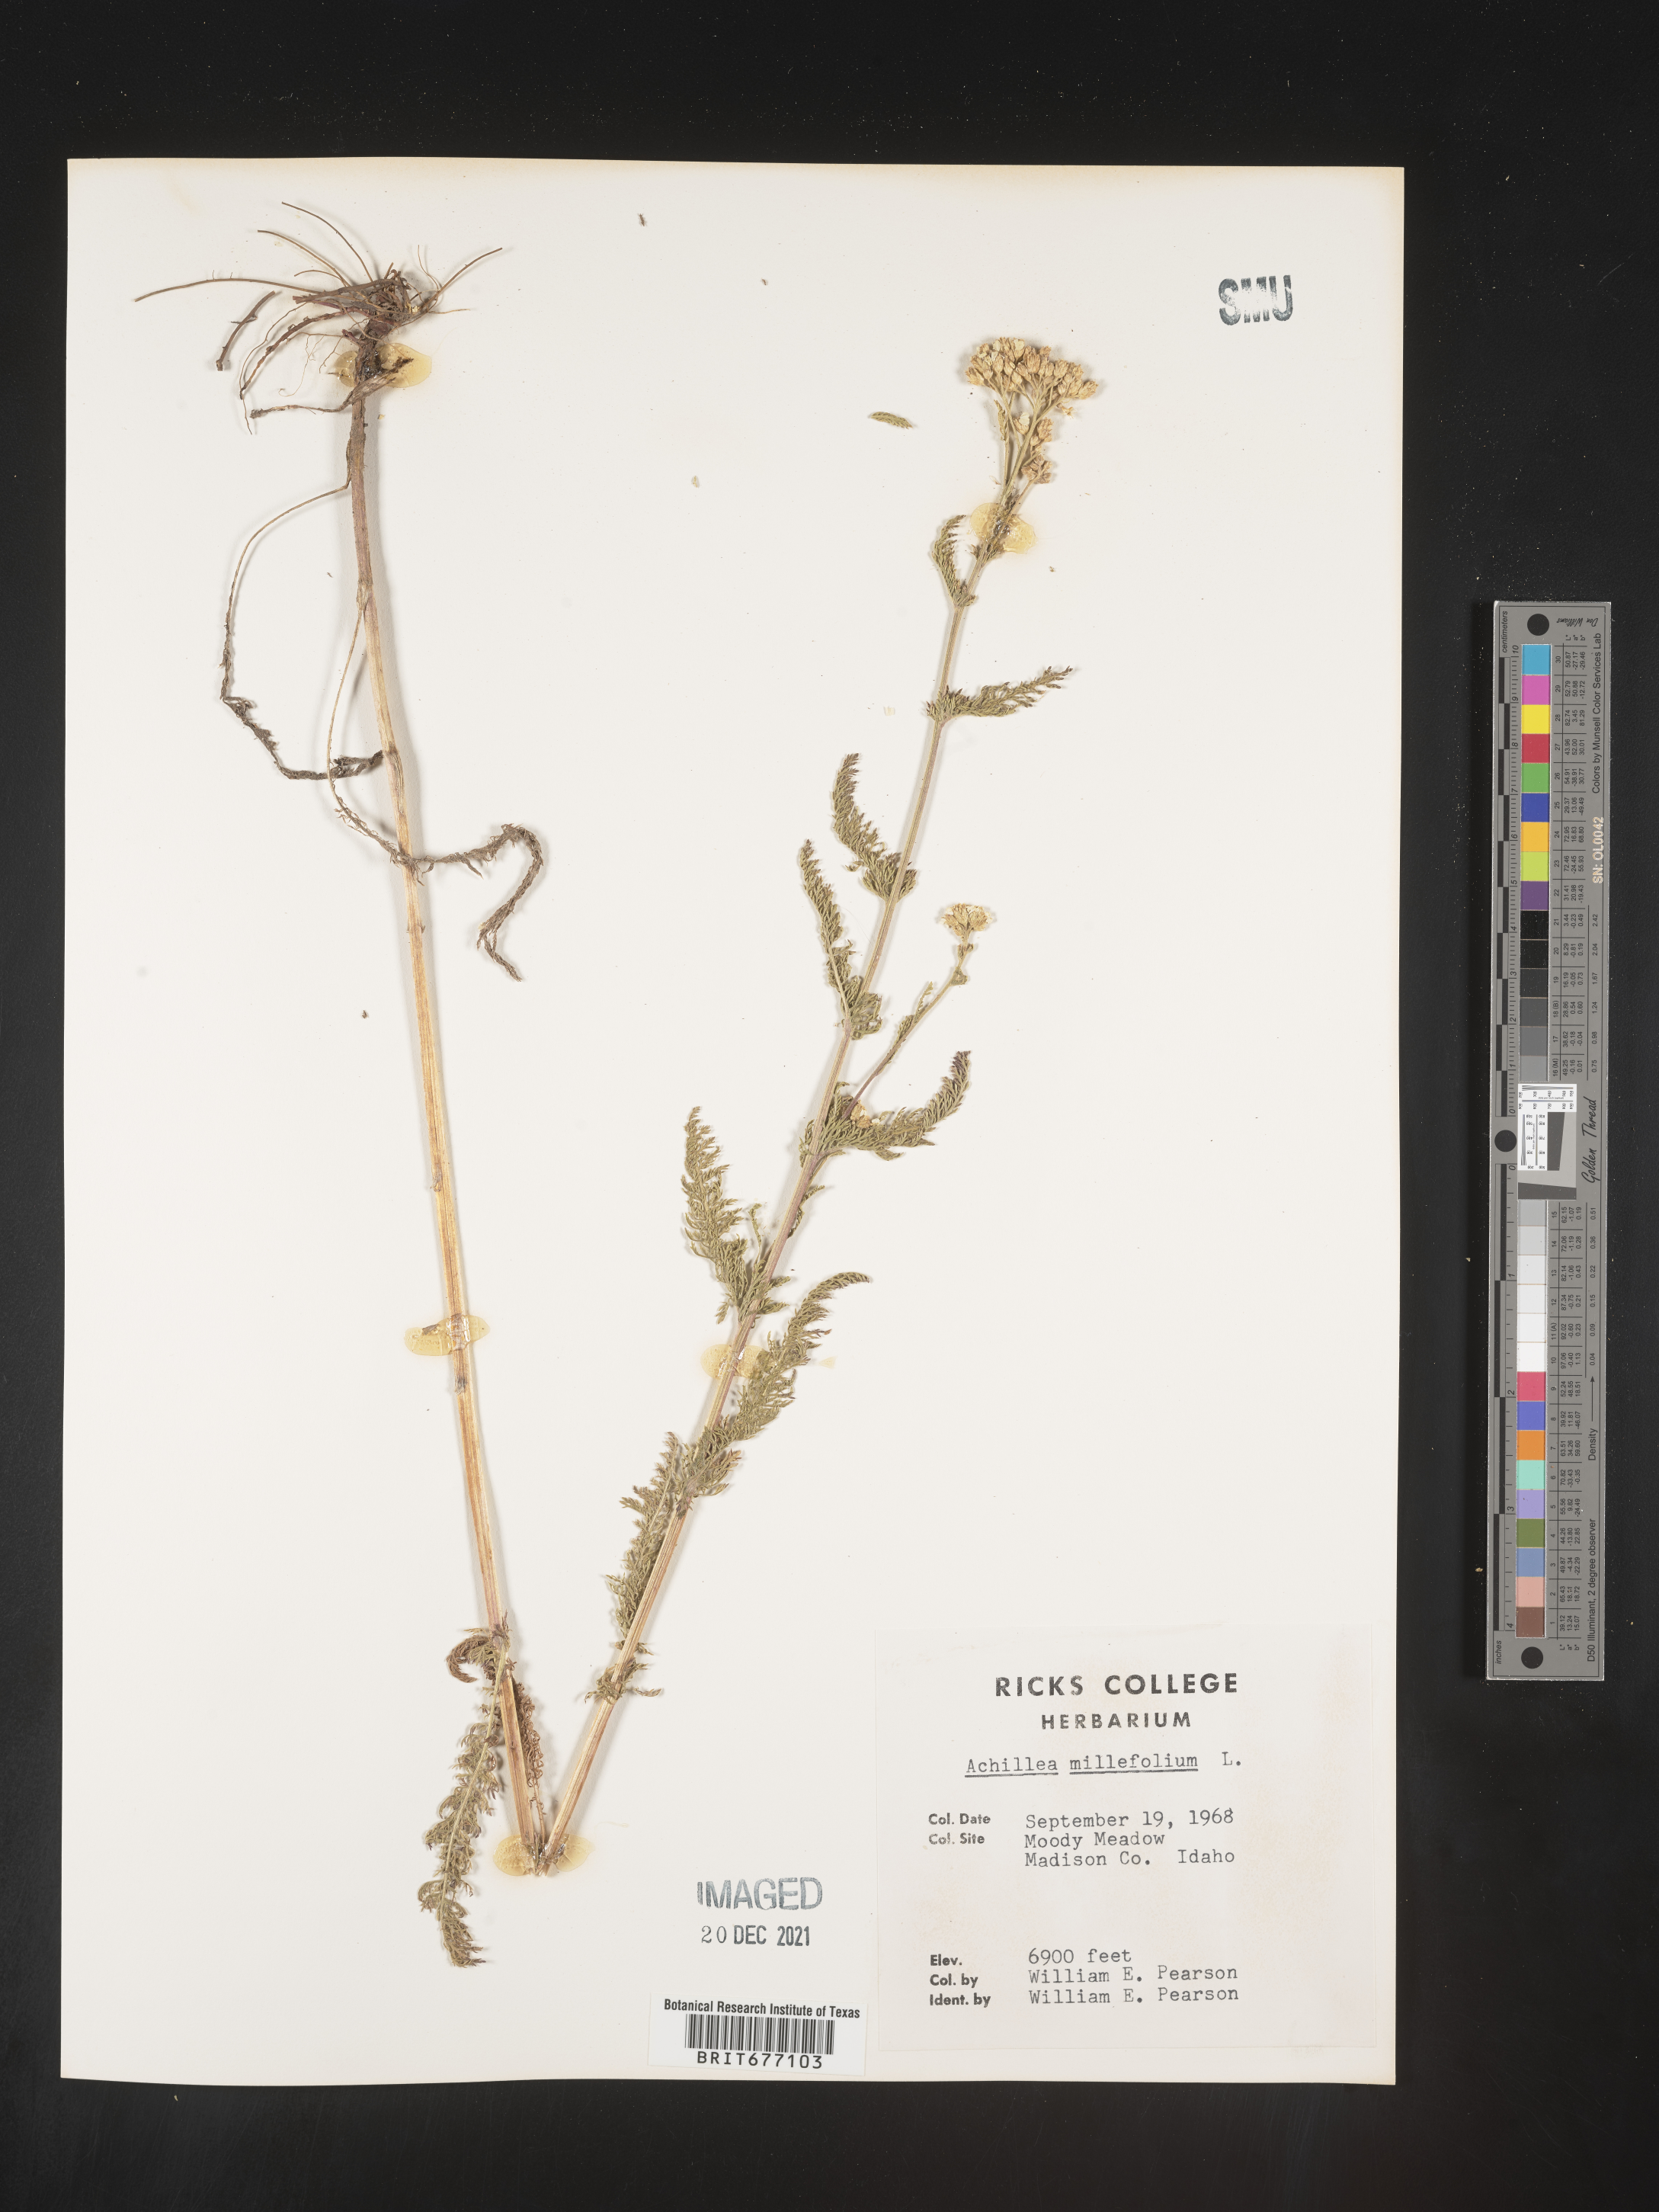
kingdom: Plantae
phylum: Tracheophyta
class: Magnoliopsida
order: Asterales
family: Asteraceae
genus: Achillea
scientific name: Achillea millefolium
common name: Yarrow
